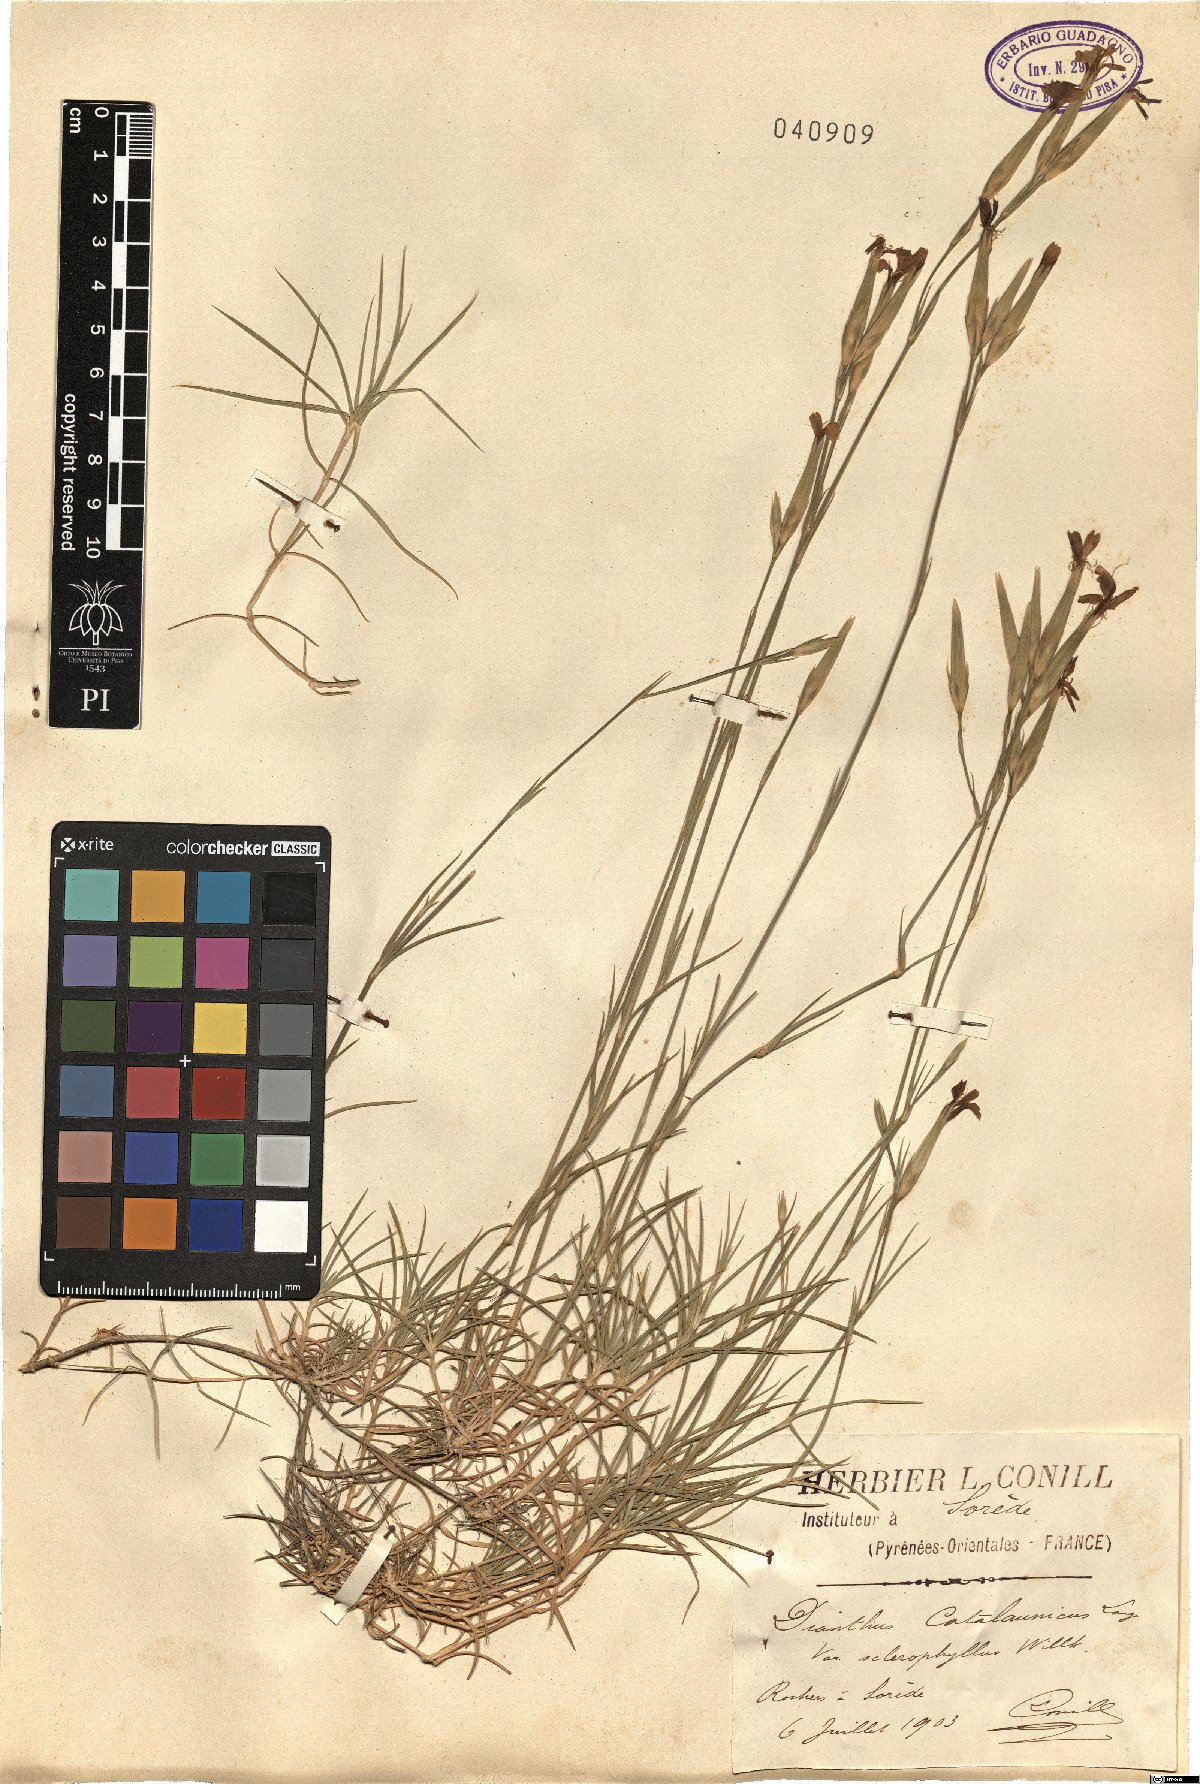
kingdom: Plantae
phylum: Tracheophyta
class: Magnoliopsida
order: Caryophyllales
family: Caryophyllaceae
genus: Dianthus
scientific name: Dianthus pyrenaicus
